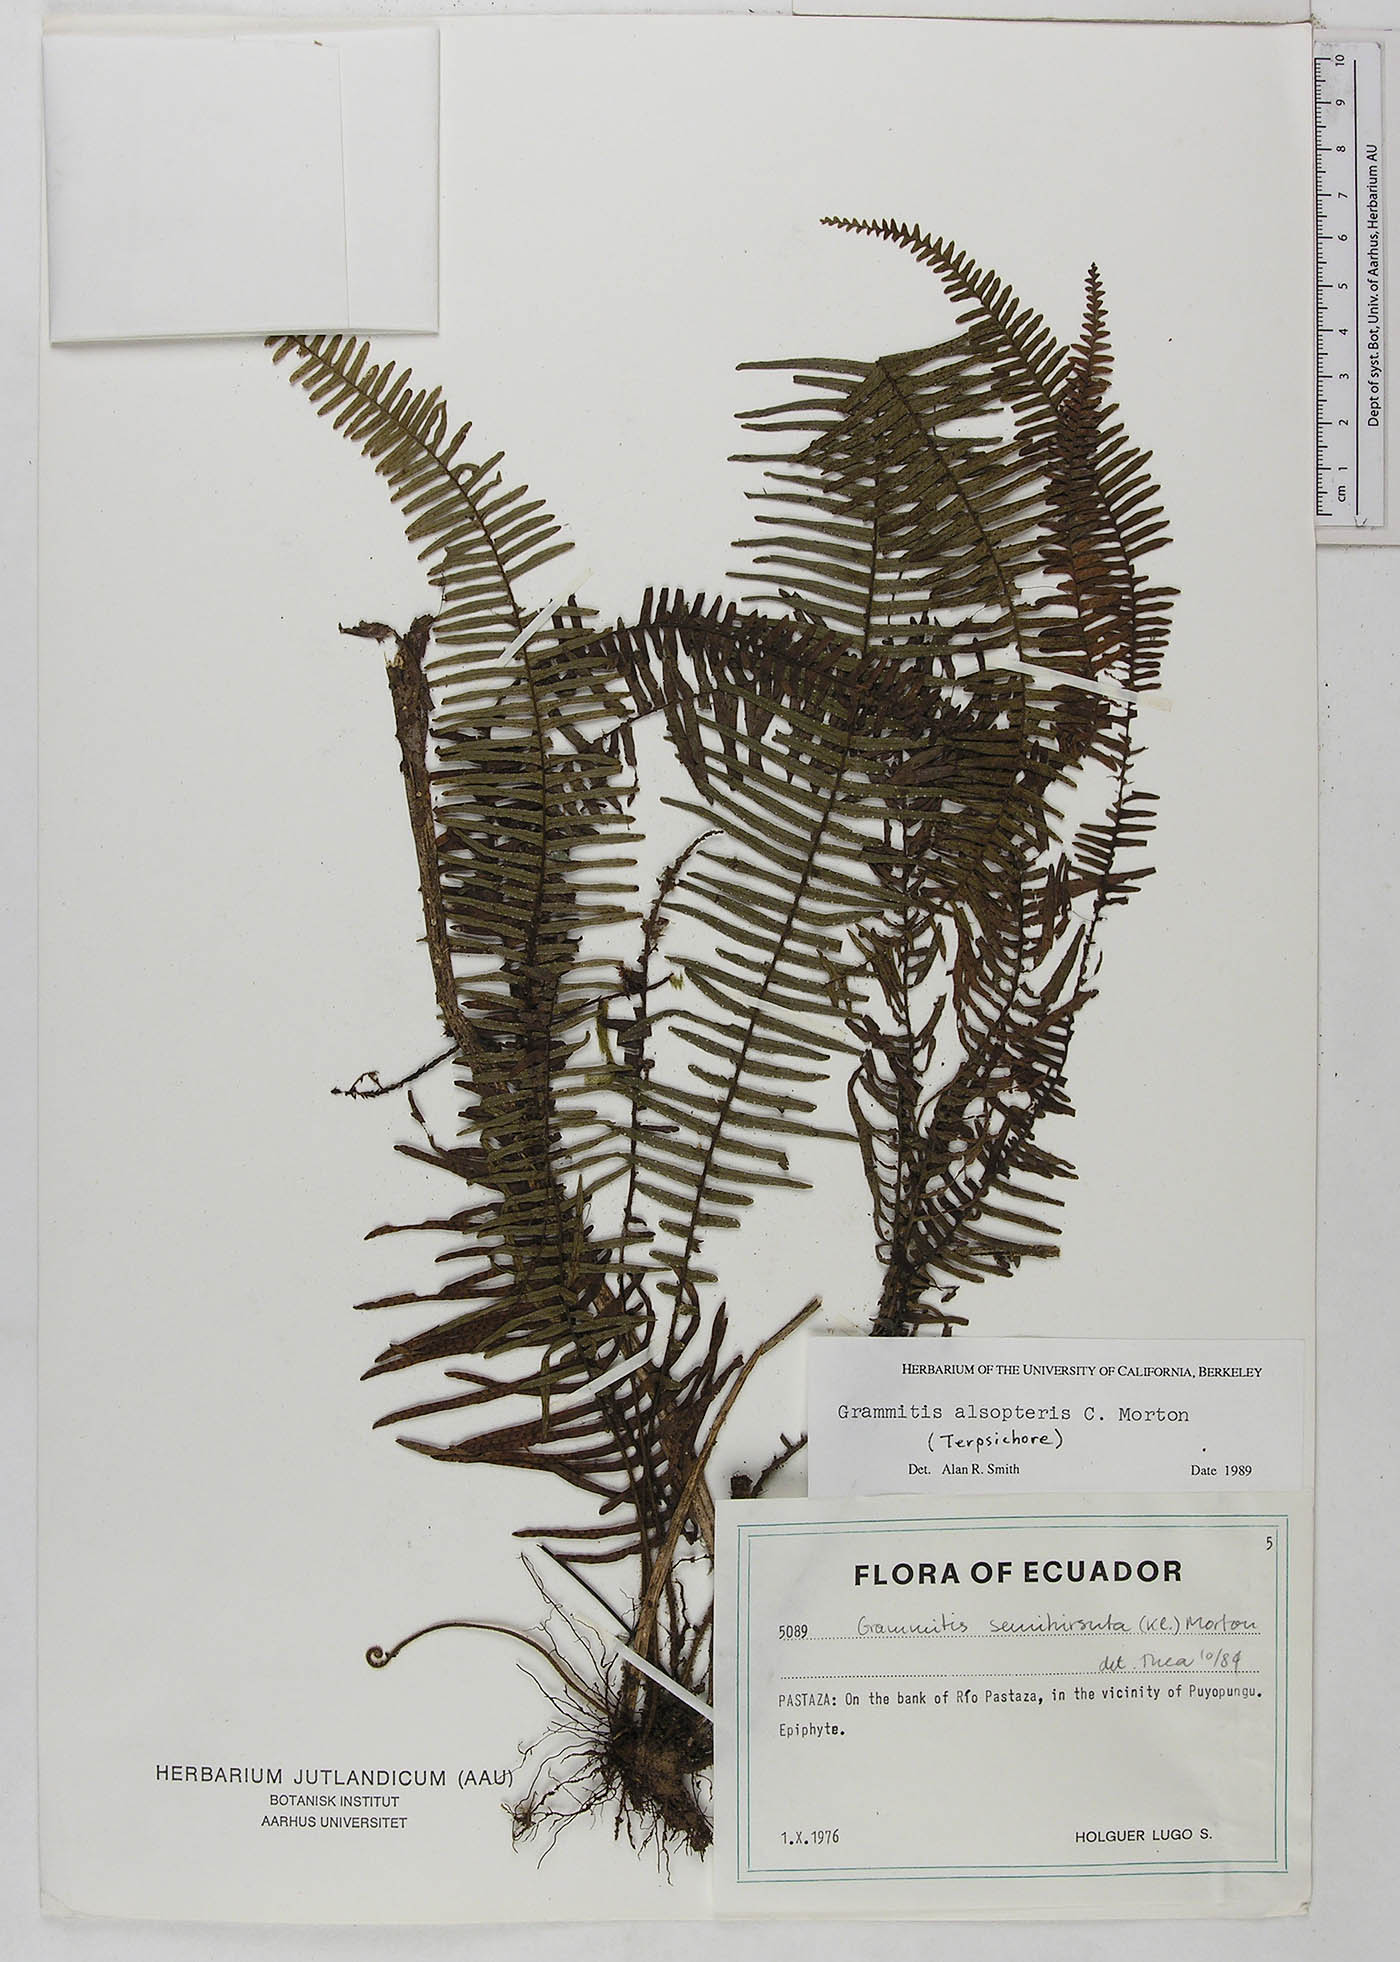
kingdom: Plantae
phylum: Tracheophyta
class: Polypodiopsida
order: Polypodiales
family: Polypodiaceae
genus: Mycopteris
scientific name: Mycopteris alsopteris
